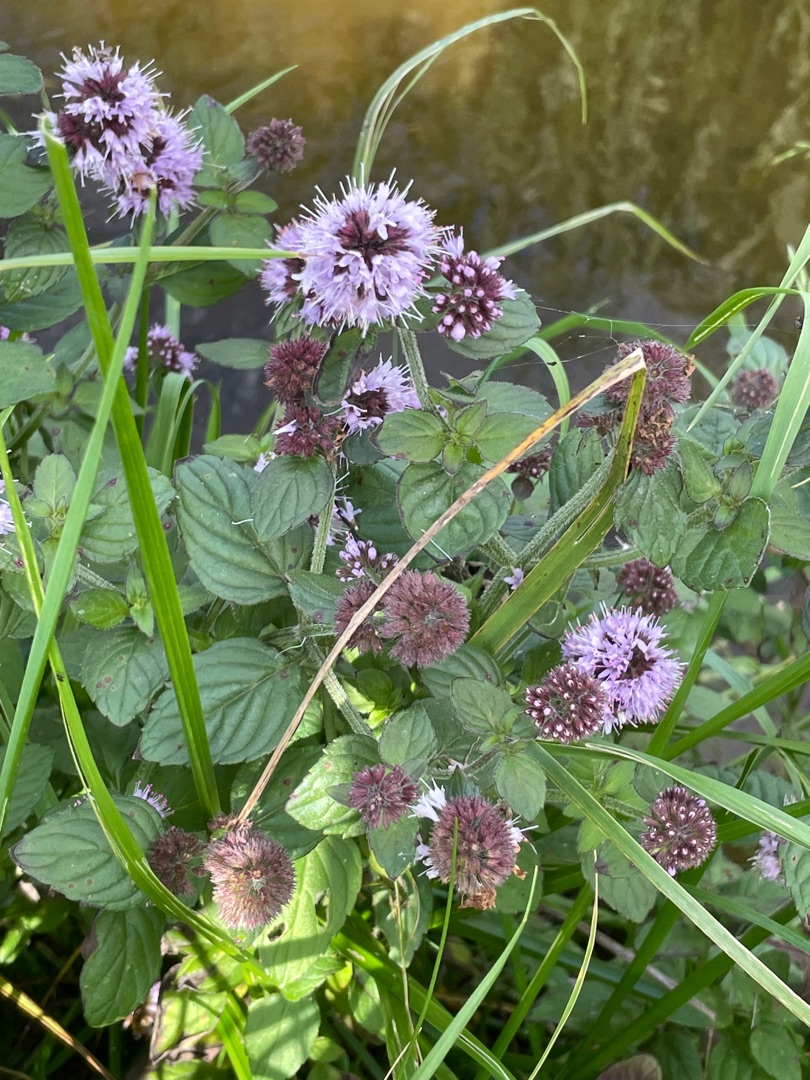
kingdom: Plantae
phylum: Tracheophyta
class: Magnoliopsida
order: Lamiales
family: Lamiaceae
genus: Mentha
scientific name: Mentha aquatica
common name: Vand-mynte
